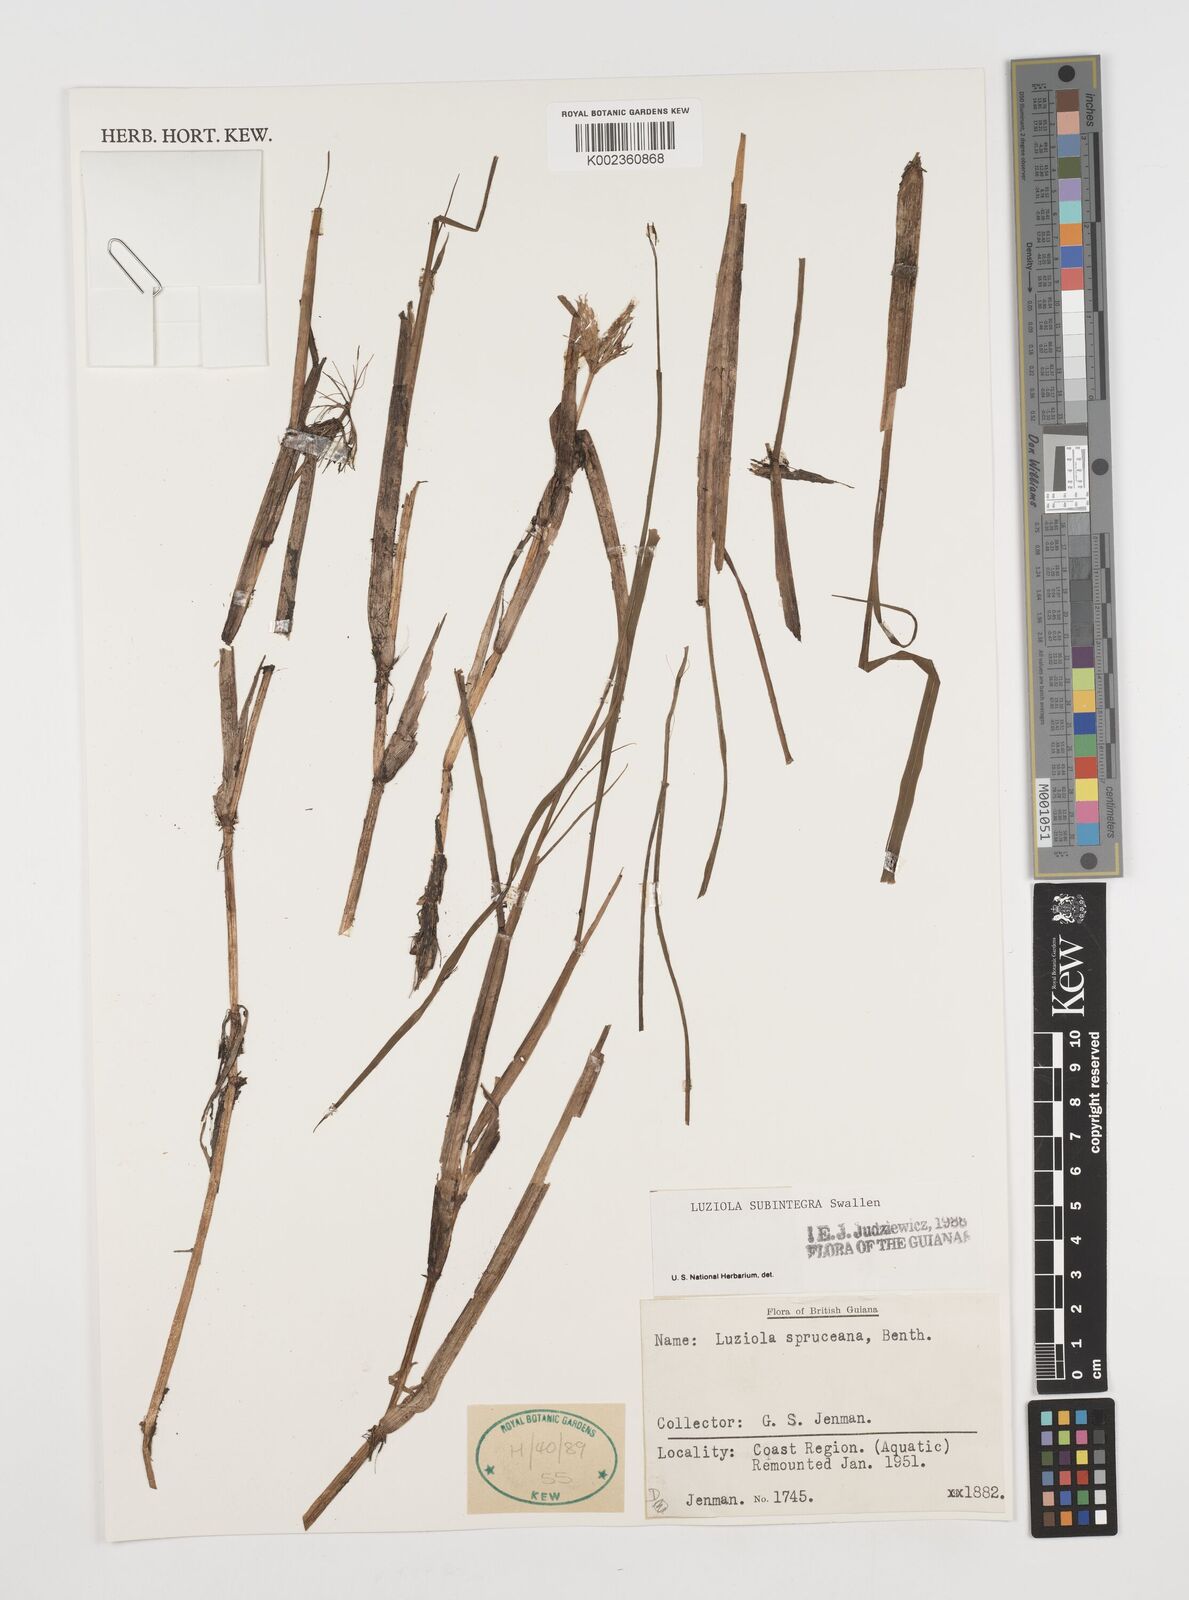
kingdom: Plantae
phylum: Tracheophyta
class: Liliopsida
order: Poales
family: Poaceae
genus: Luziola
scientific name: Luziola subintegra
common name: Large watergrass
